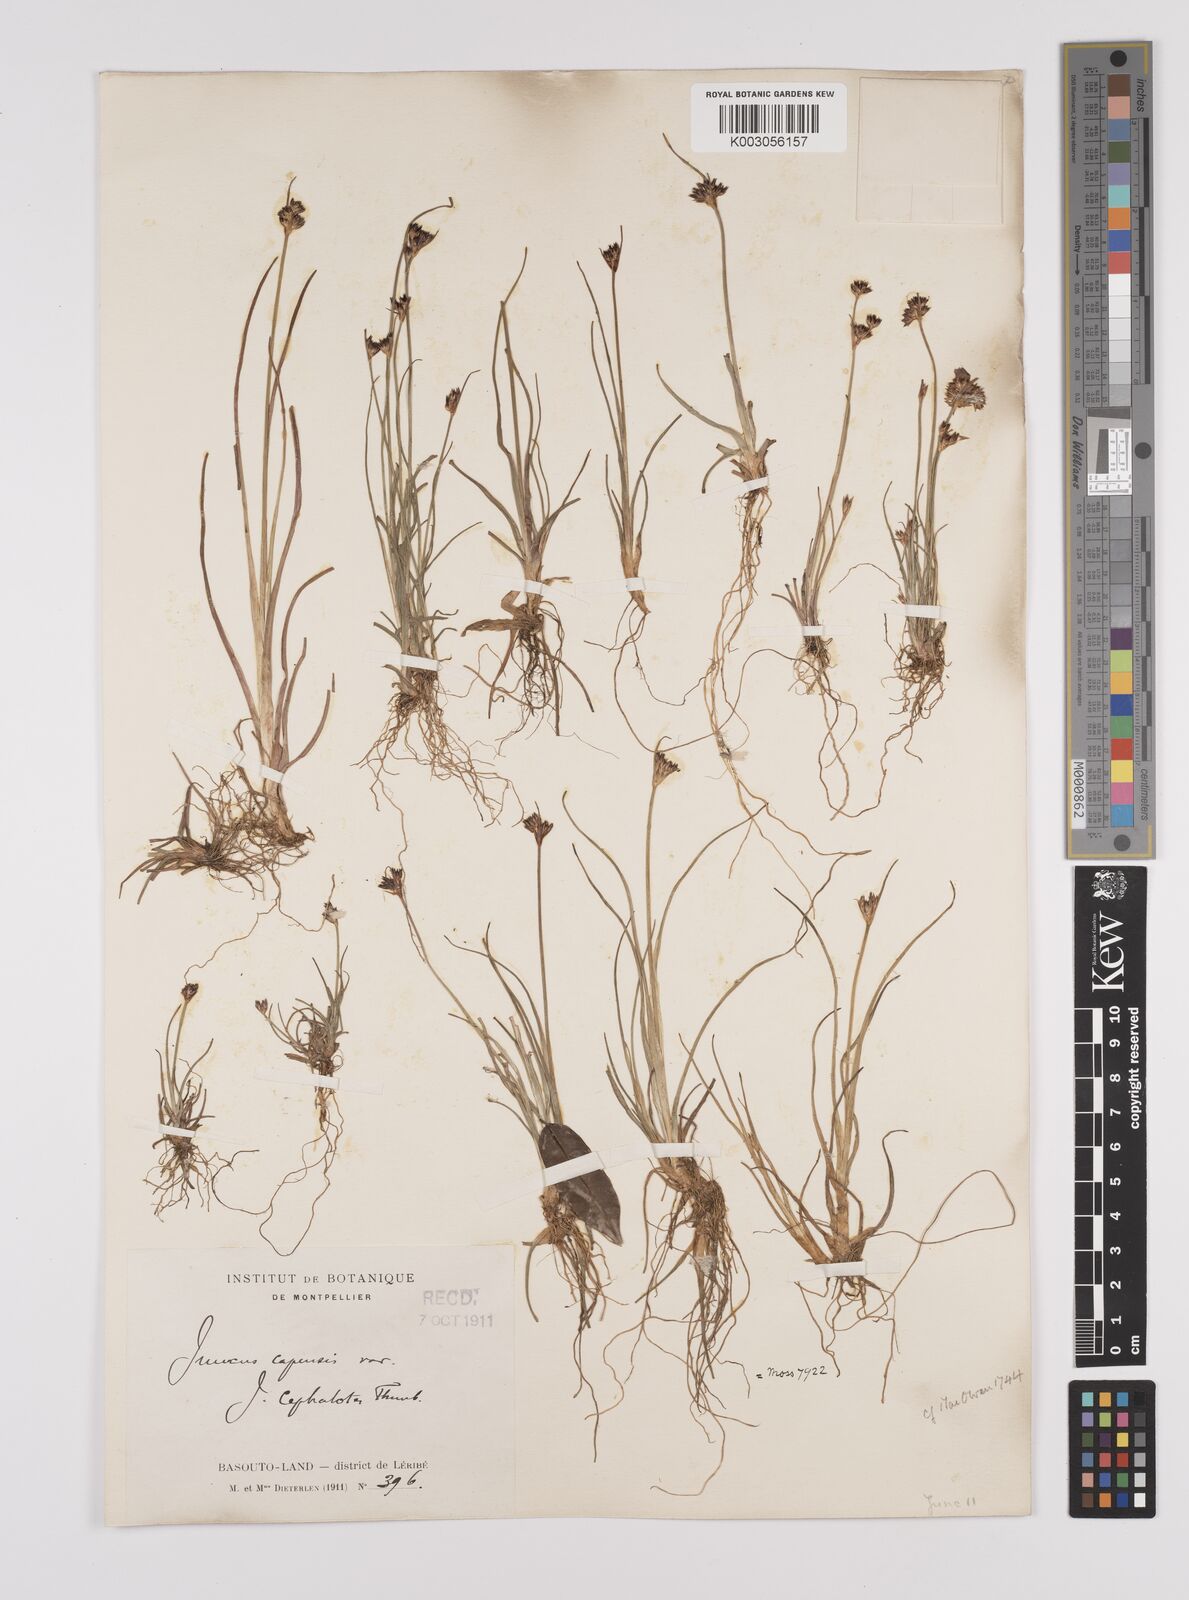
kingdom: Plantae
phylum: Tracheophyta
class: Liliopsida
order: Poales
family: Juncaceae
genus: Juncus
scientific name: Juncus
